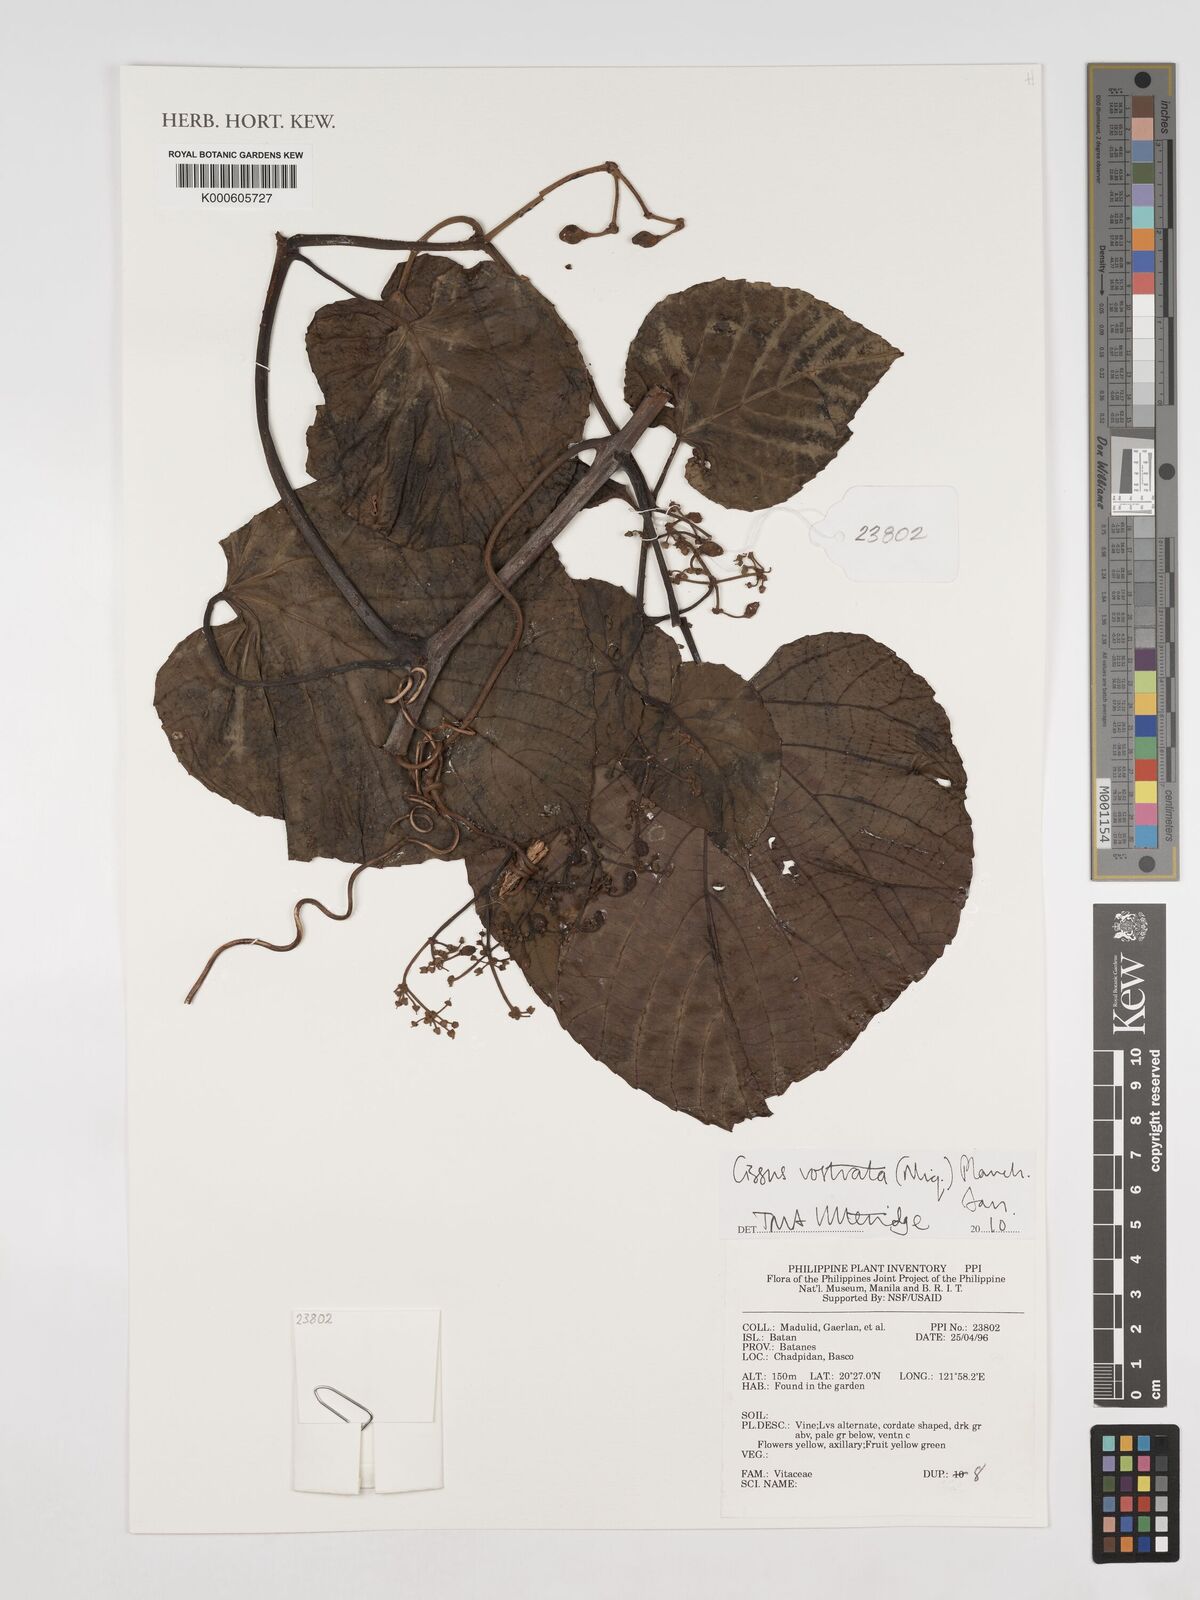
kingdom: Plantae
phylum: Tracheophyta
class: Magnoliopsida
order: Vitales
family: Vitaceae
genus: Cissus
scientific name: Cissus rostrata
